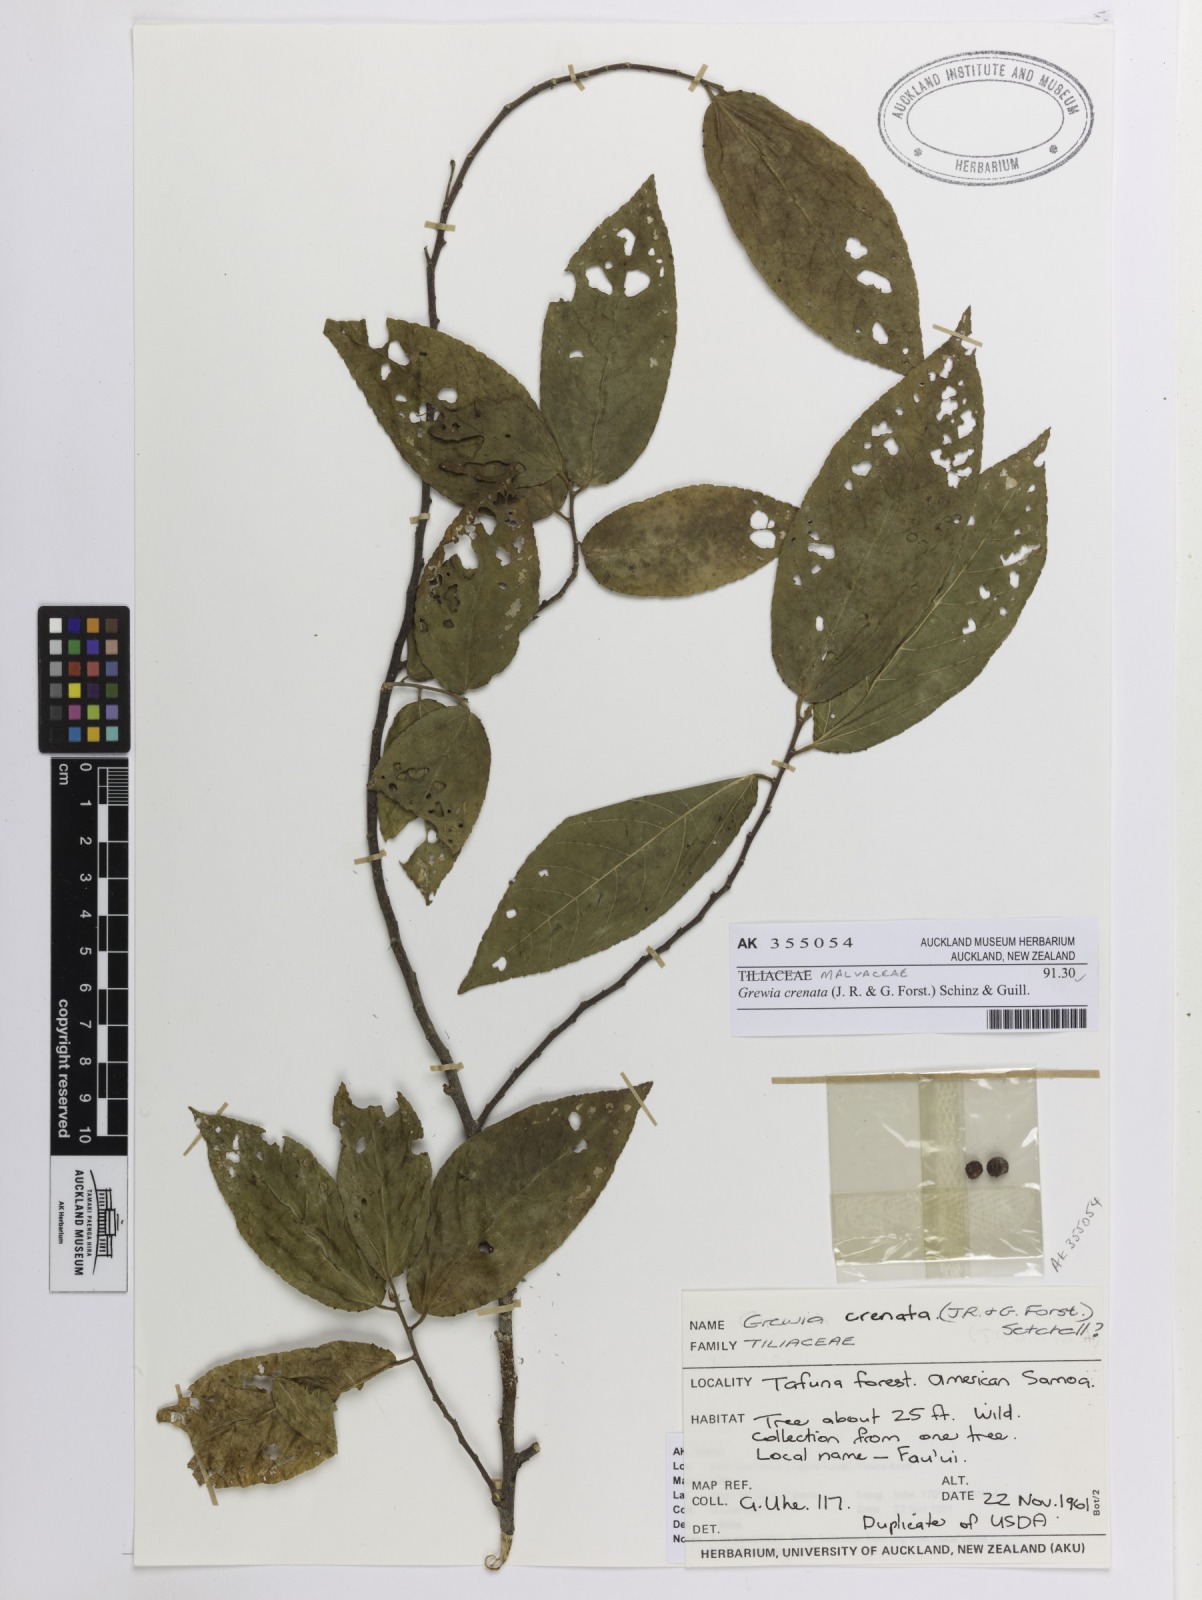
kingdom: Plantae
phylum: Tracheophyta
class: Magnoliopsida
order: Malvales
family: Malvaceae
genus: Grewia
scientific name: Grewia crenata
